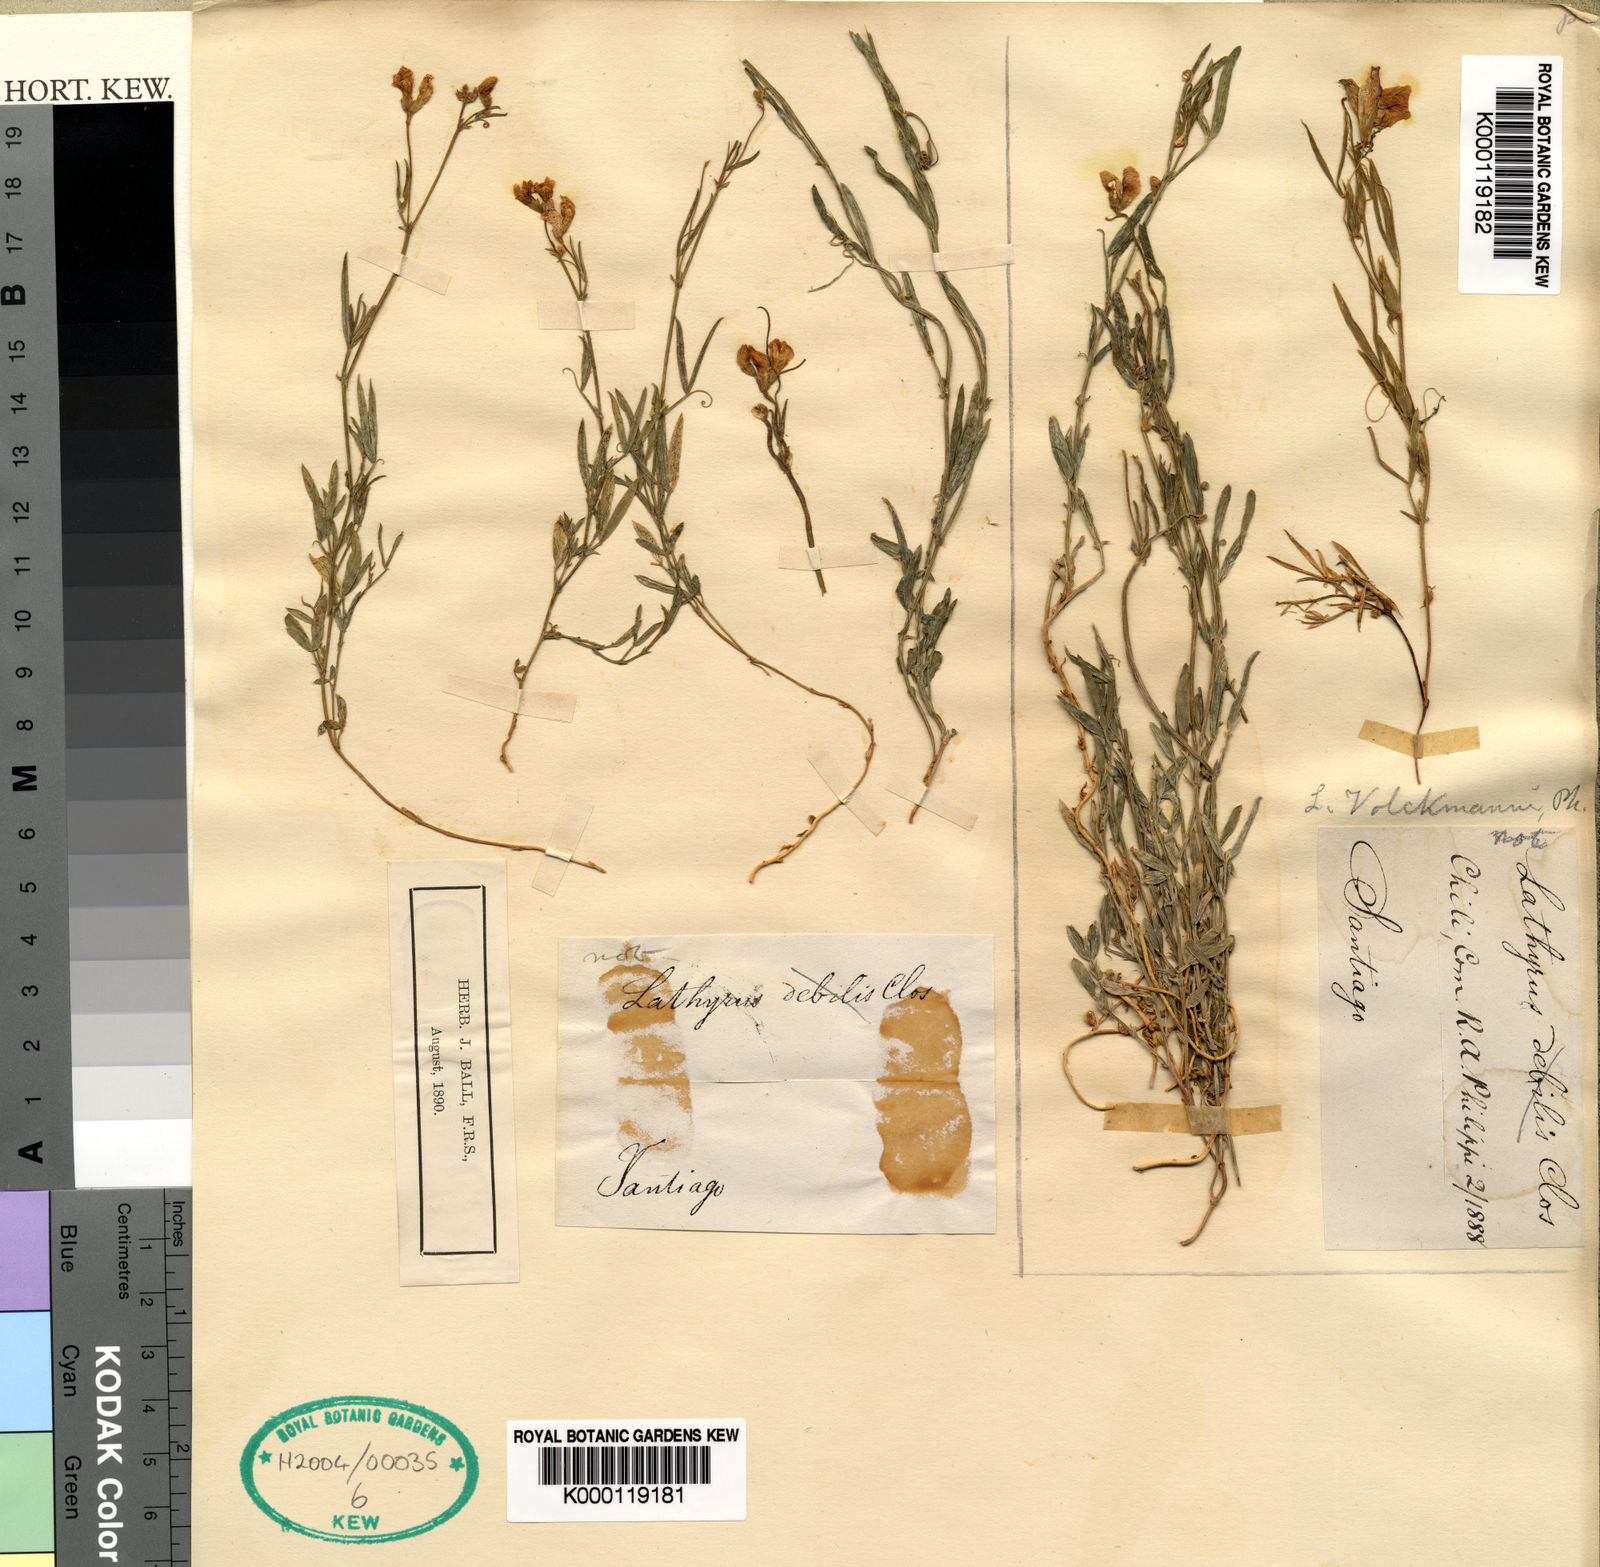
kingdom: Plantae
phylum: Tracheophyta
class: Magnoliopsida
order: Fabales
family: Fabaceae
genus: Lathyrus
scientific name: Lathyrus volckmannii
